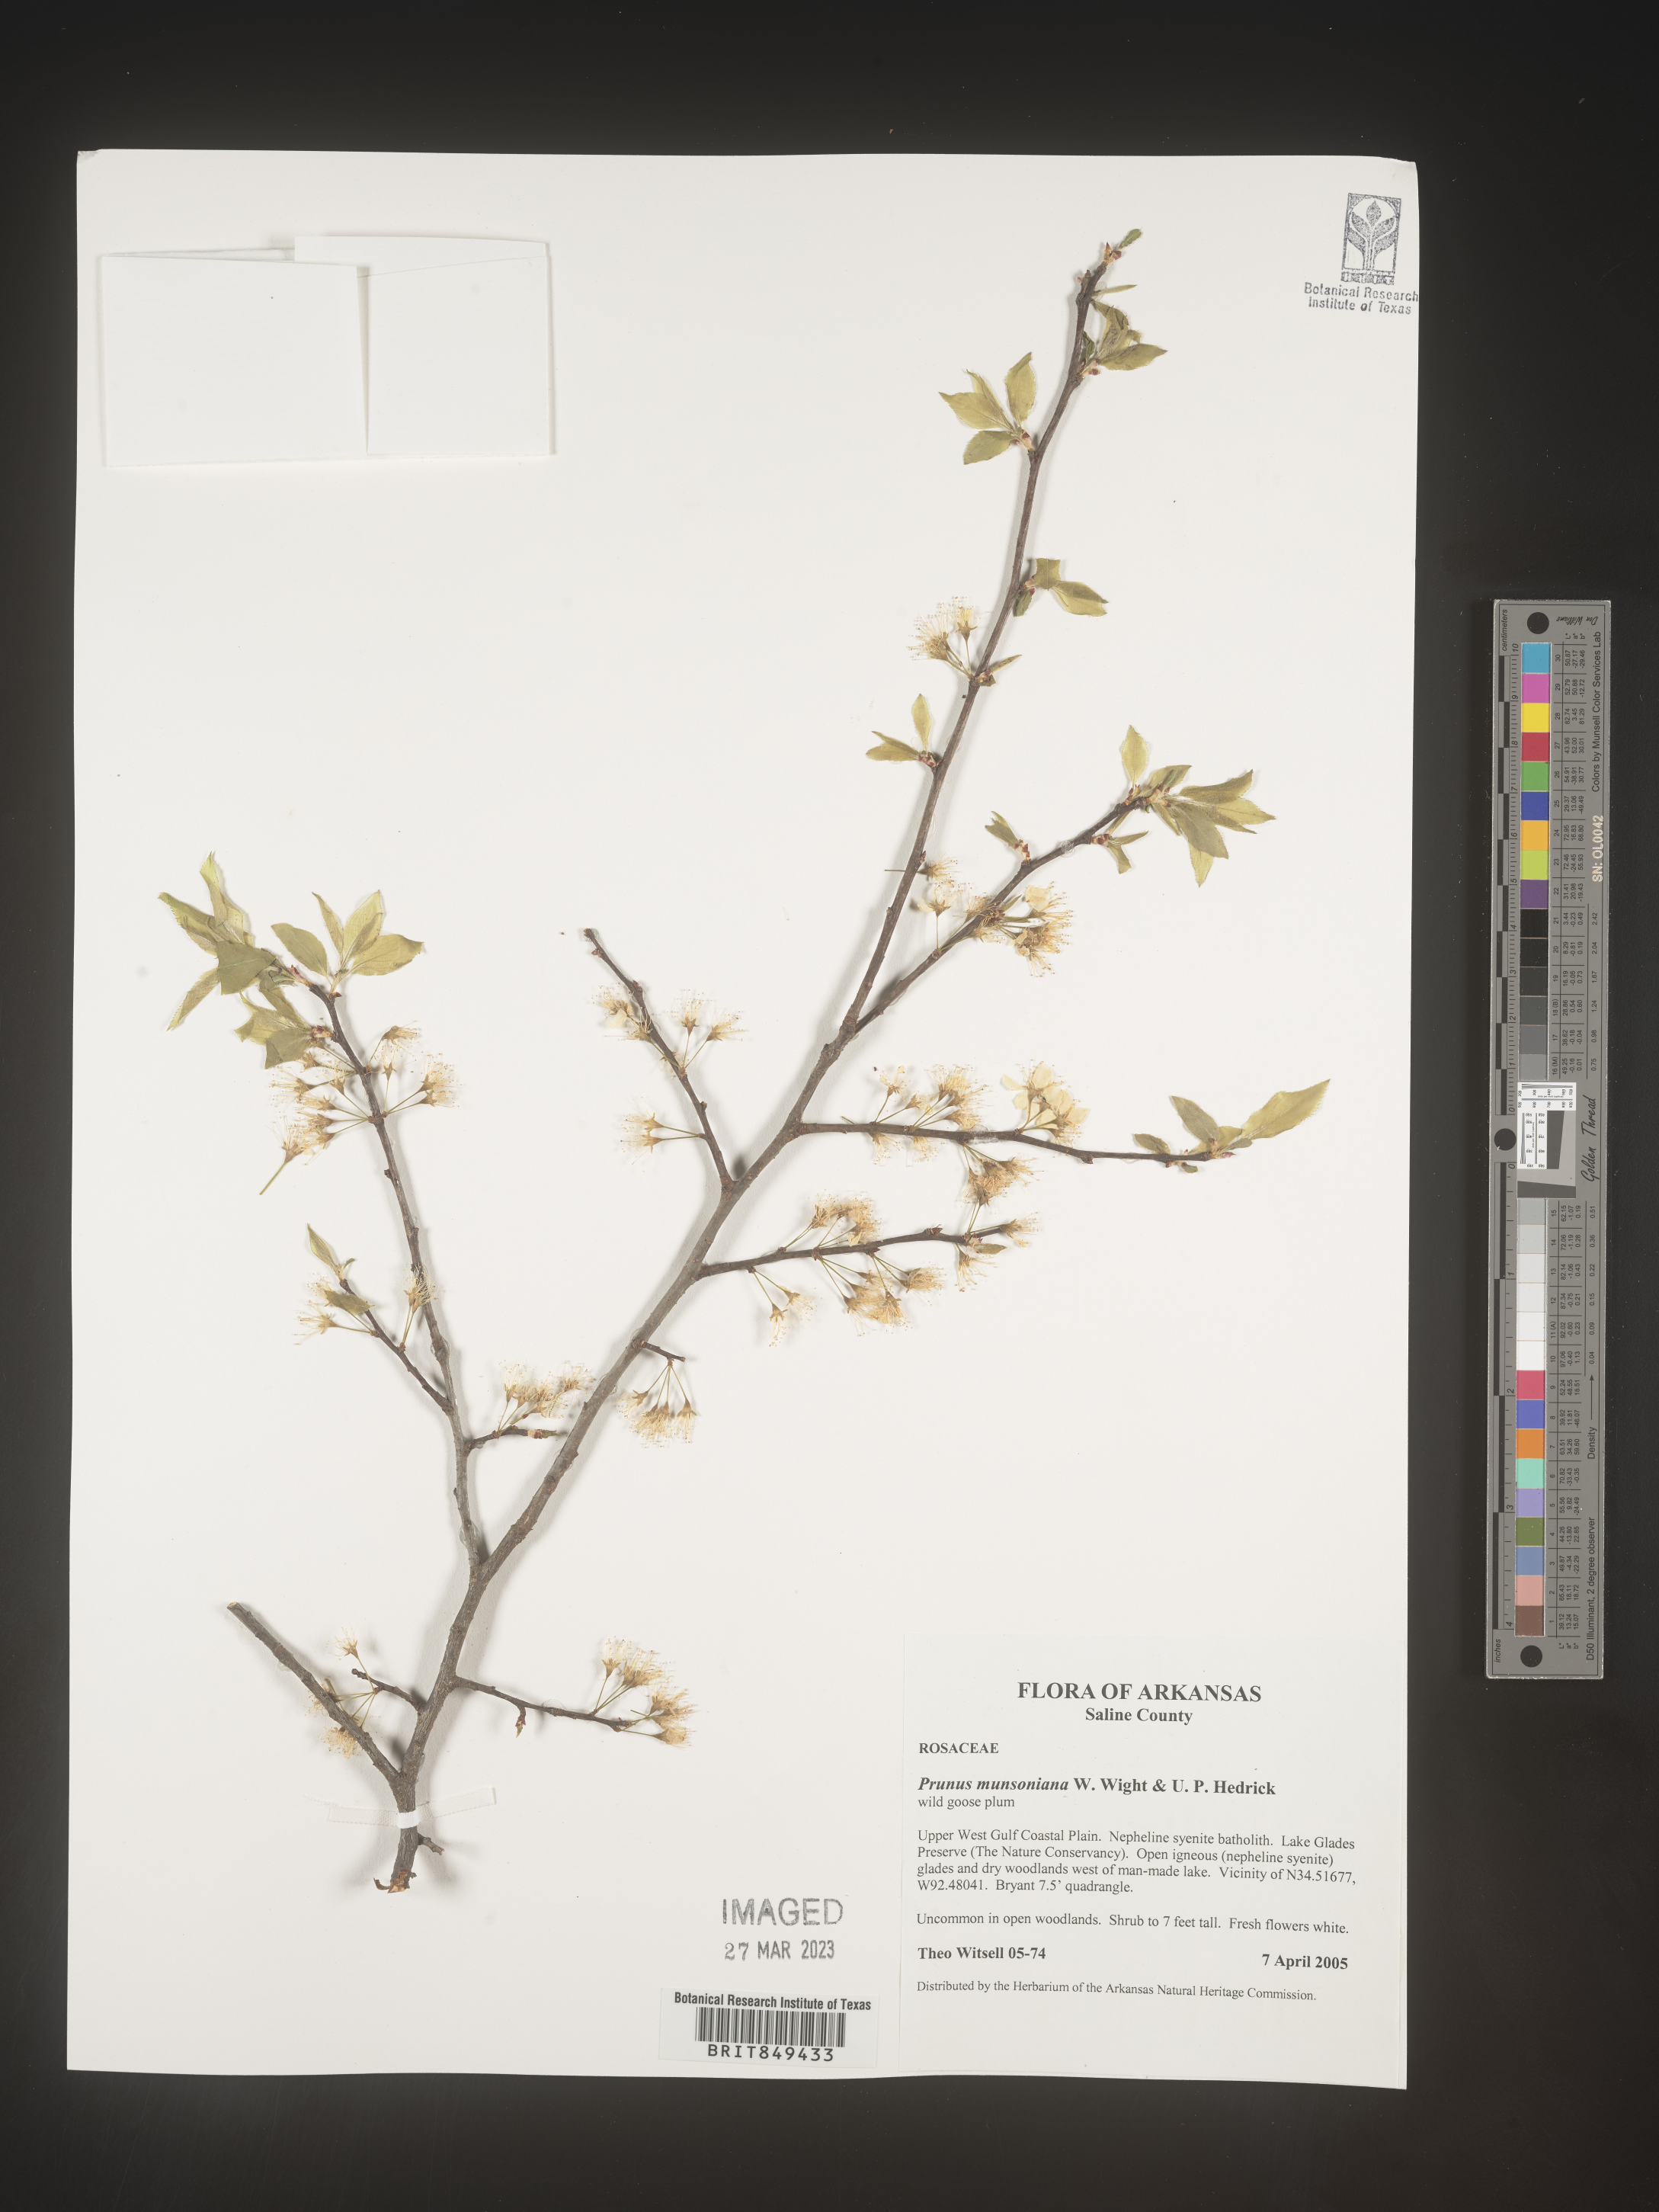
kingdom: Plantae
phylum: Tracheophyta
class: Magnoliopsida
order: Rosales
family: Rosaceae
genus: Prunus
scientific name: Prunus munsoniana
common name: Creek plum
